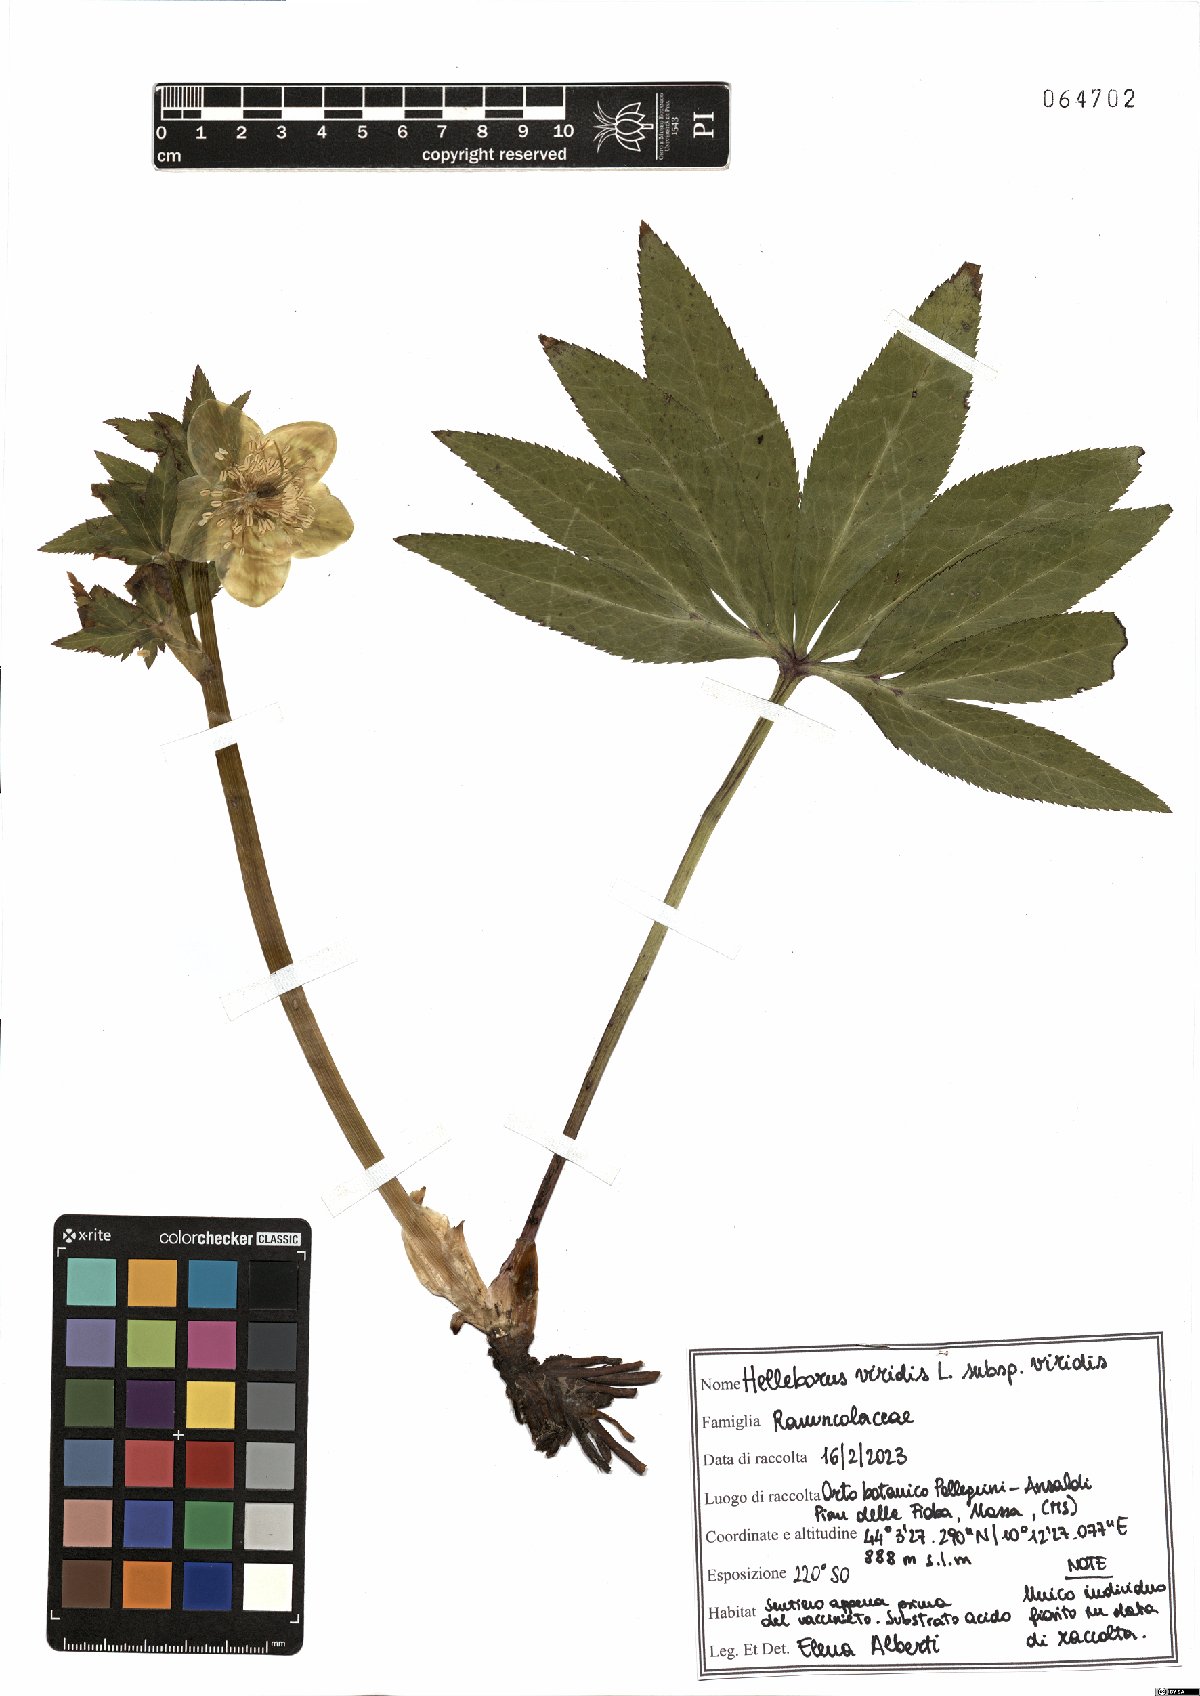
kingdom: Plantae
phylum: Tracheophyta
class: Magnoliopsida
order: Ranunculales
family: Ranunculaceae
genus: Helleborus
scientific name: Helleborus viridis
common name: Green hellebore
